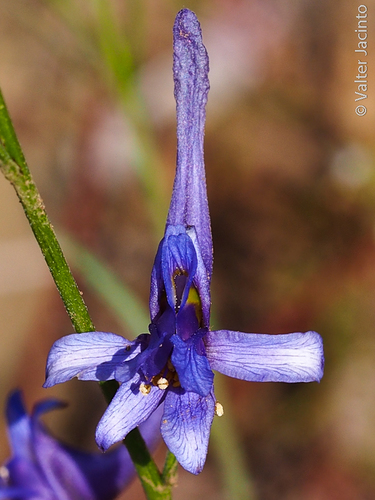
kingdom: Plantae
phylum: Tracheophyta
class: Magnoliopsida
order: Ranunculales
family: Ranunculaceae
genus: Delphinium
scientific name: Delphinium gracile
